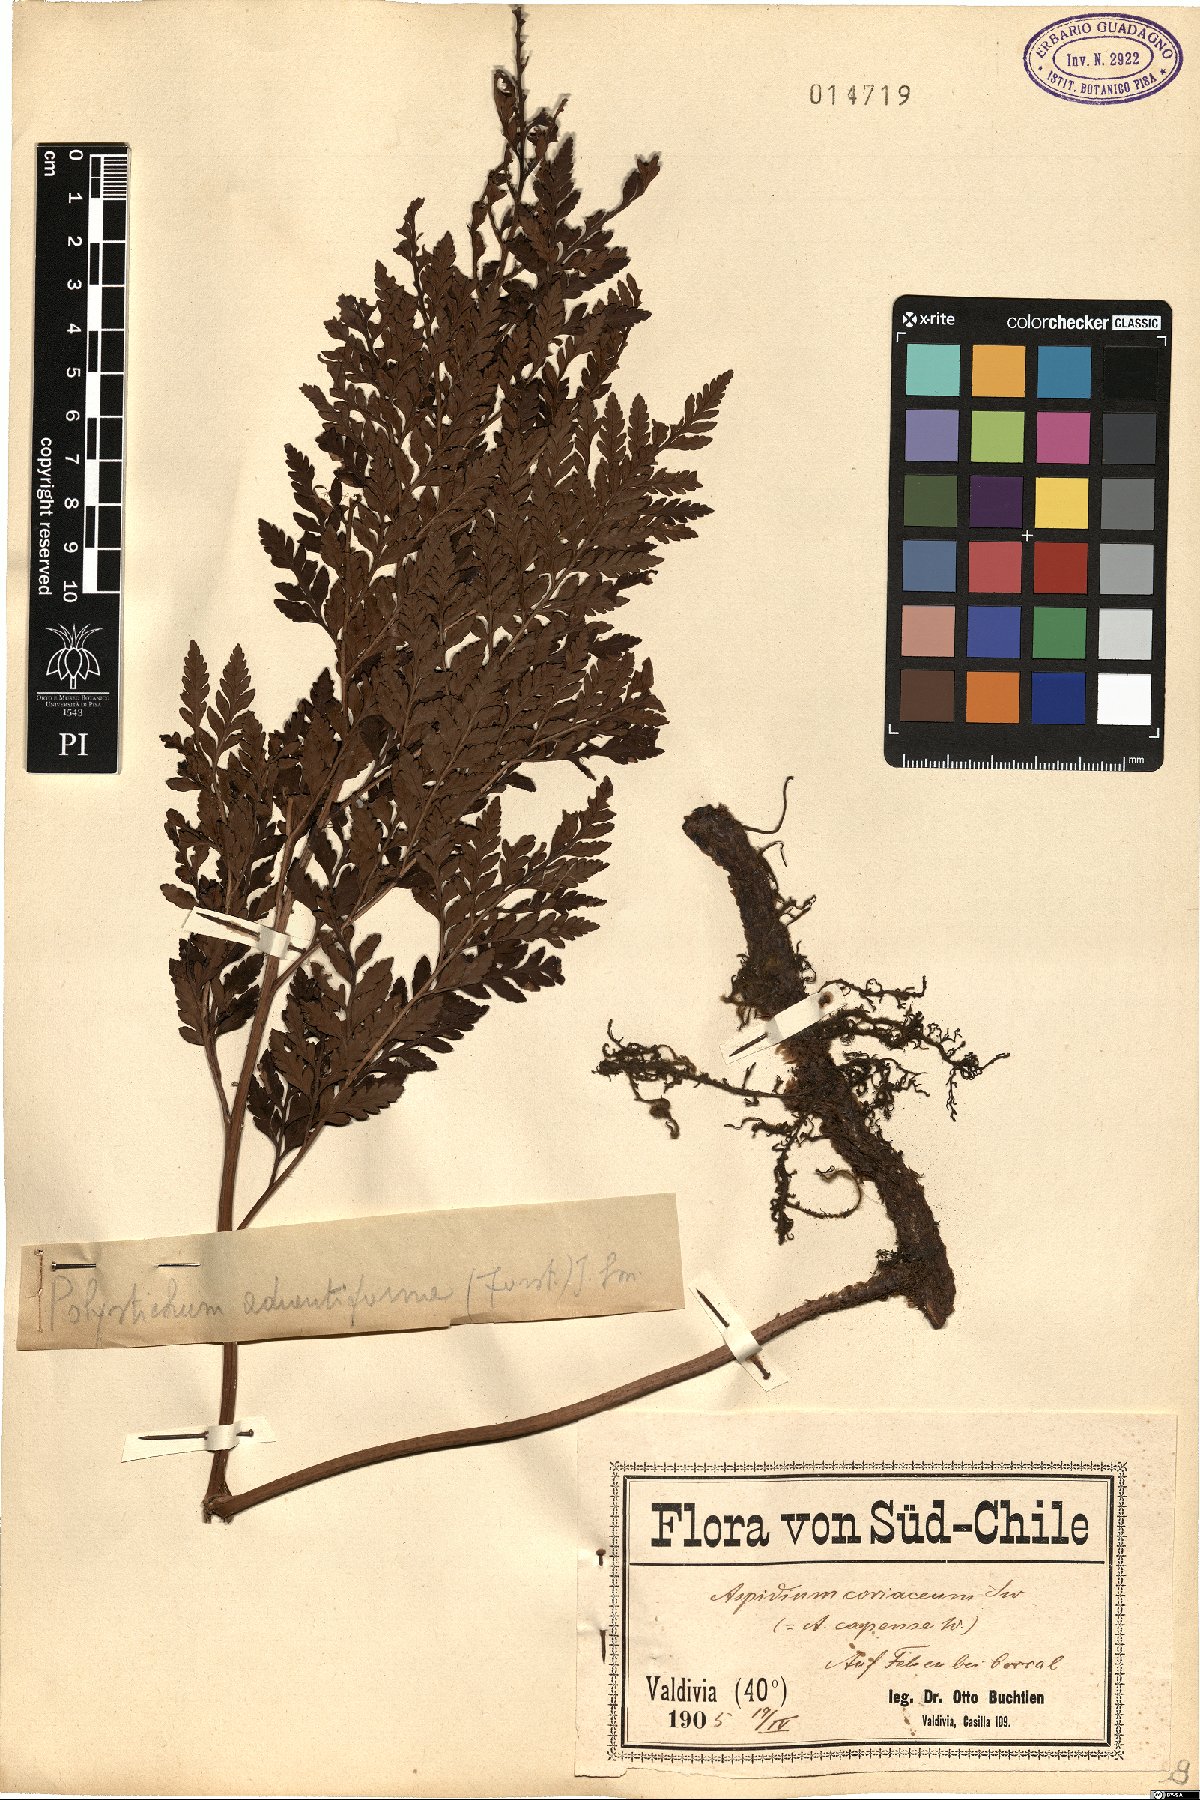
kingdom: Plantae
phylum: Tracheophyta
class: Polypodiopsida
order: Polypodiales
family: Dryopteridaceae
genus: Rumohra
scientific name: Rumohra adiantiformis
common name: Leather fern
